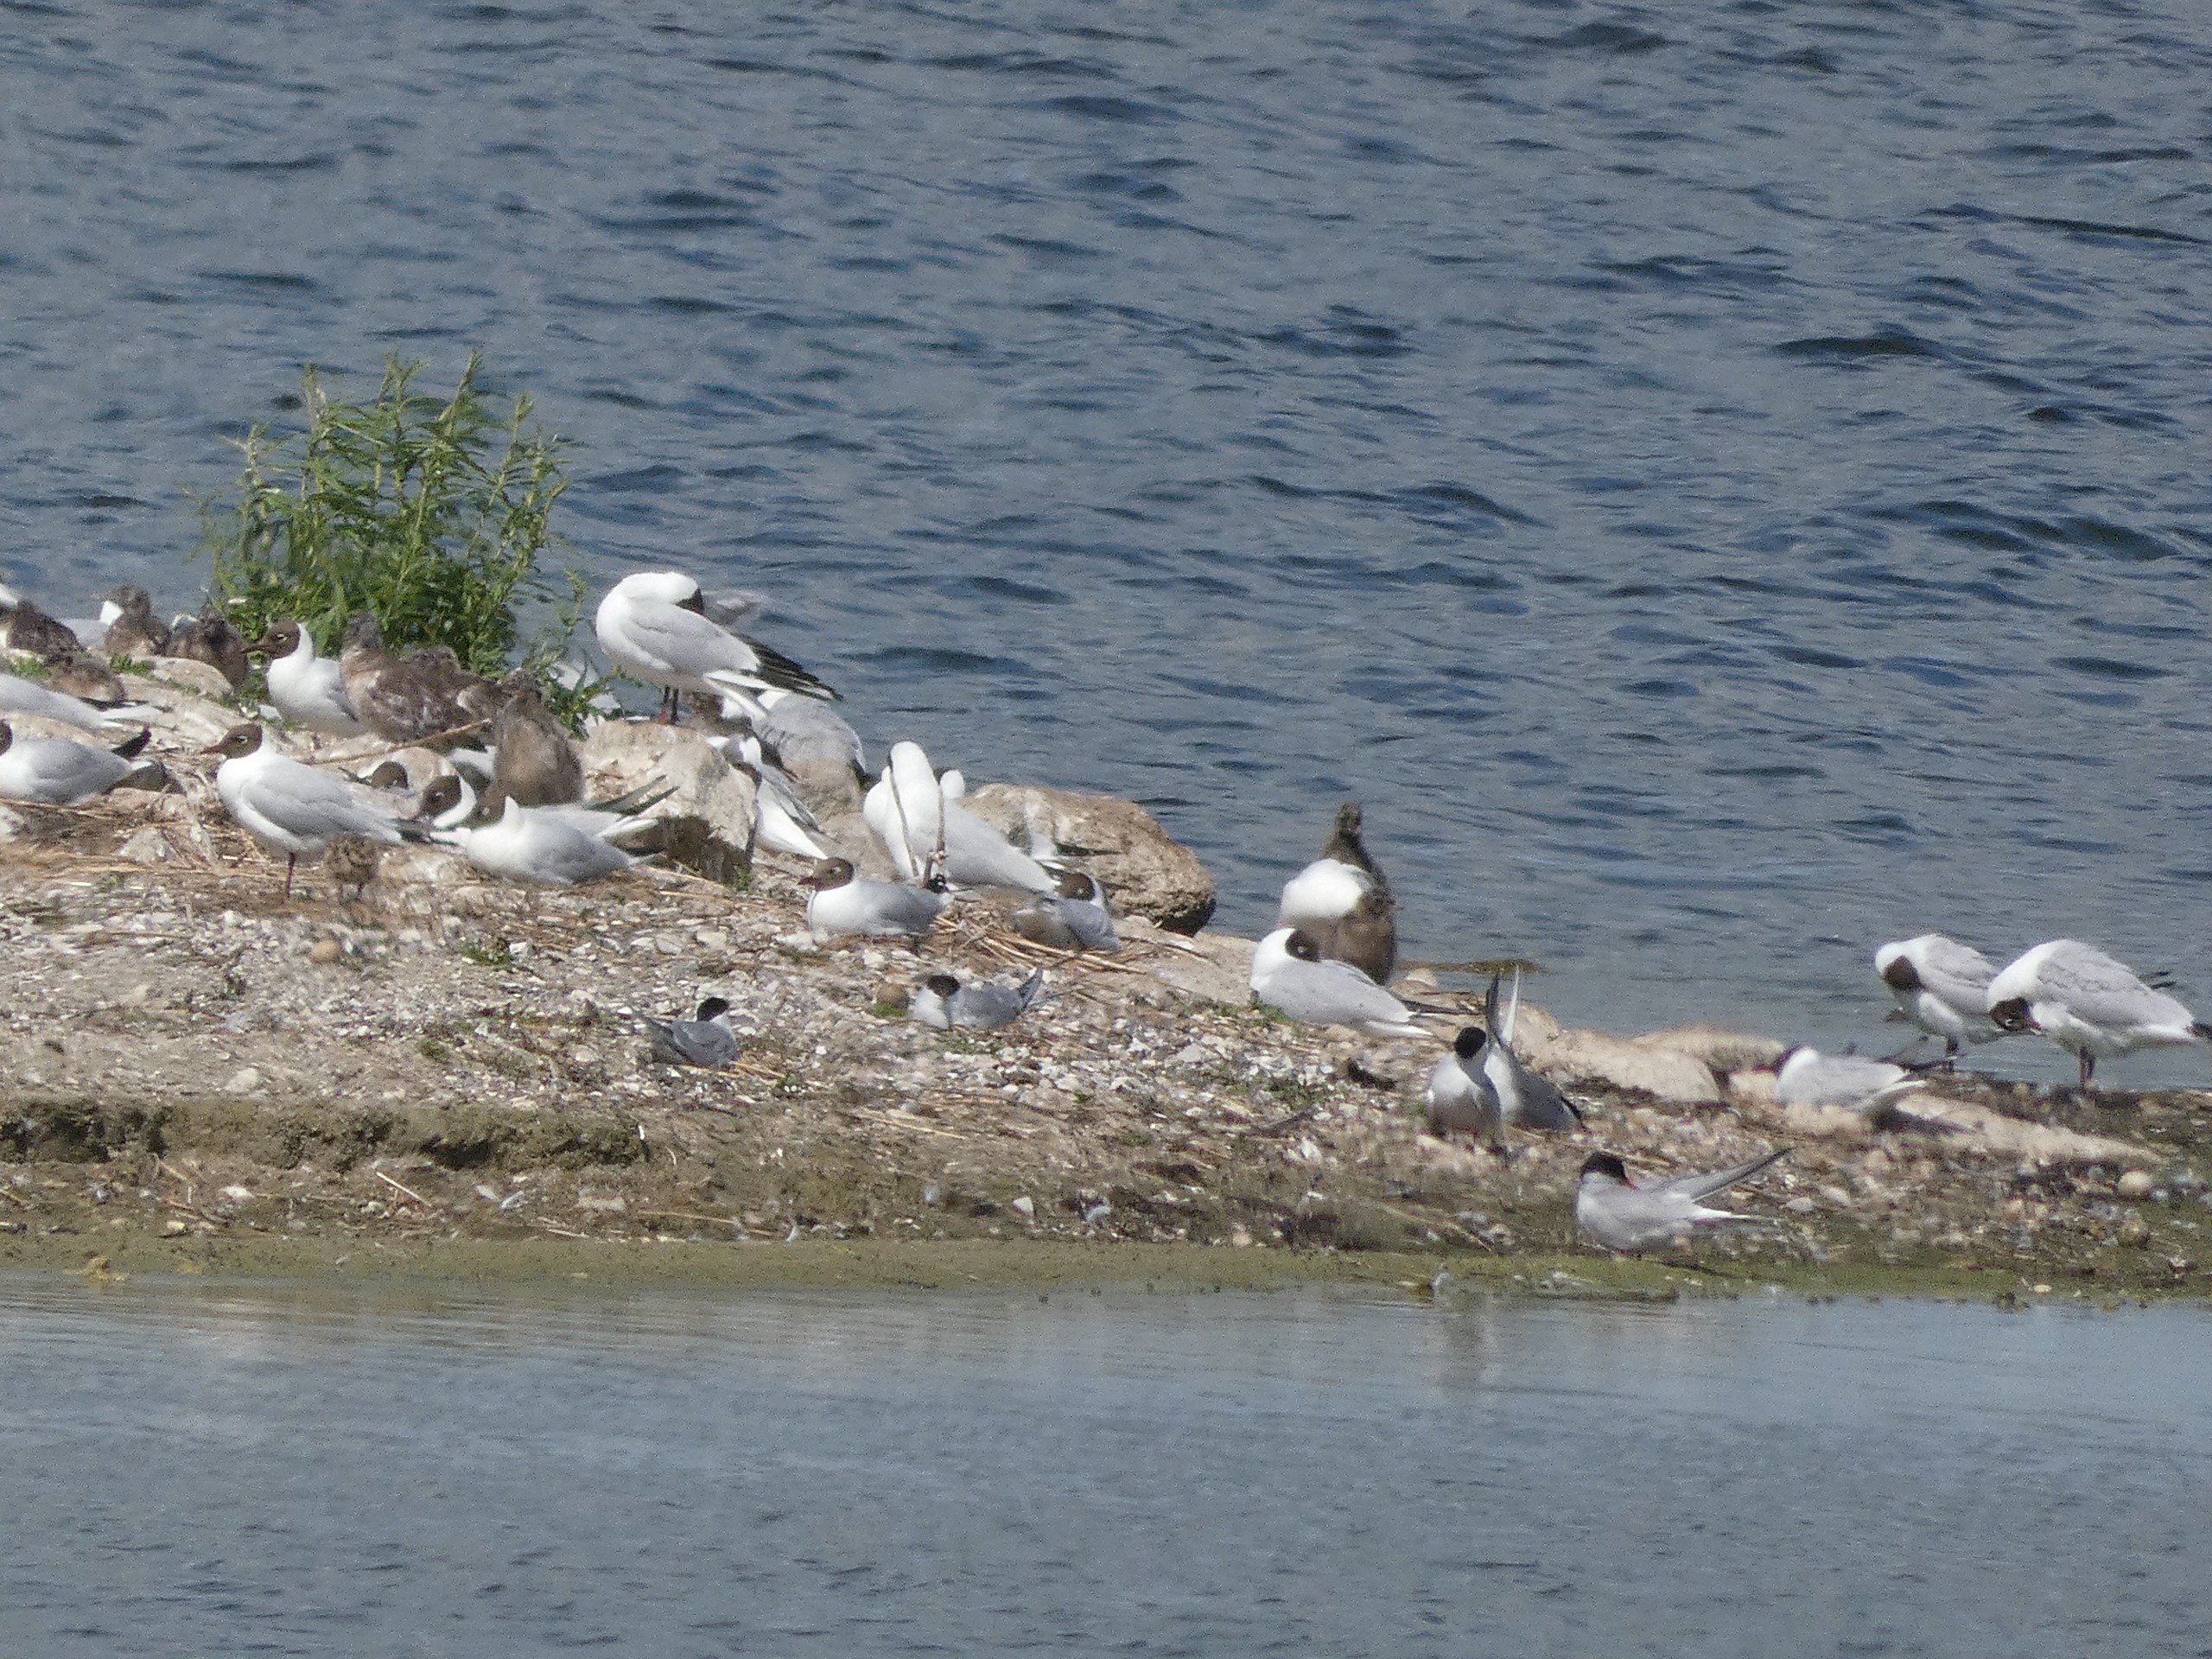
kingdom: Animalia
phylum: Chordata
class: Aves
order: Charadriiformes
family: Laridae
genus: Chroicocephalus
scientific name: Chroicocephalus ridibundus
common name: Hættemåge
